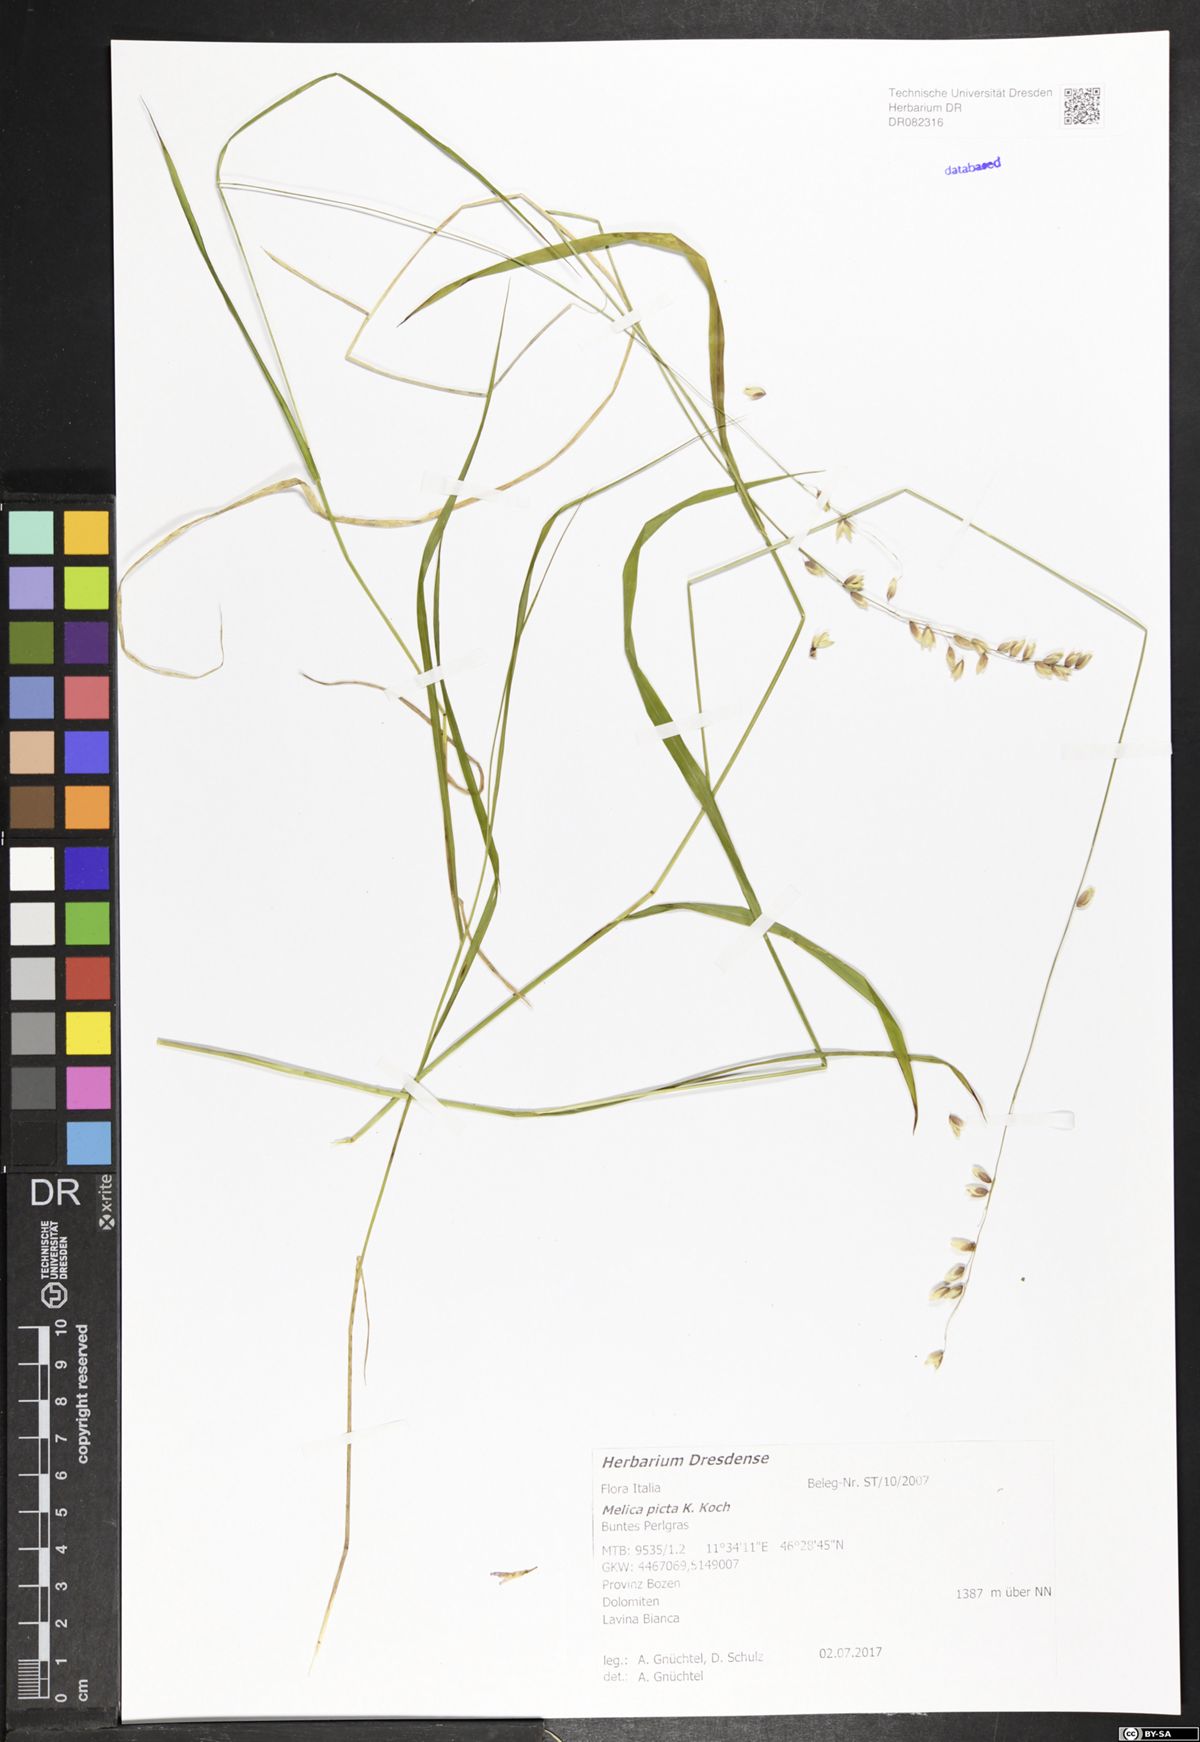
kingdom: Plantae
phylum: Tracheophyta
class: Liliopsida
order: Poales
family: Poaceae
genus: Melica
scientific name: Melica picta
